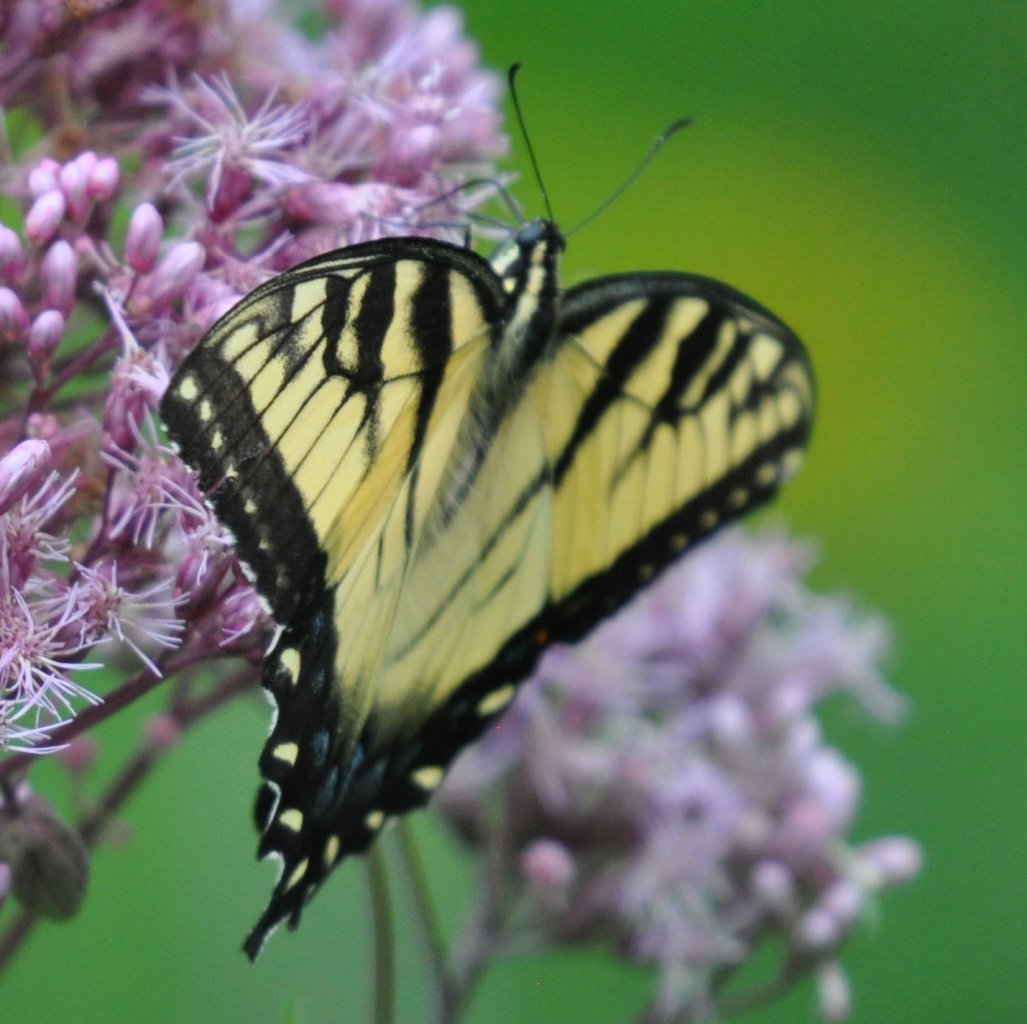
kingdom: Animalia
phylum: Arthropoda
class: Insecta
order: Lepidoptera
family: Papilionidae
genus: Pterourus
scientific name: Pterourus glaucus
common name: Eastern Tiger Swallowtail
